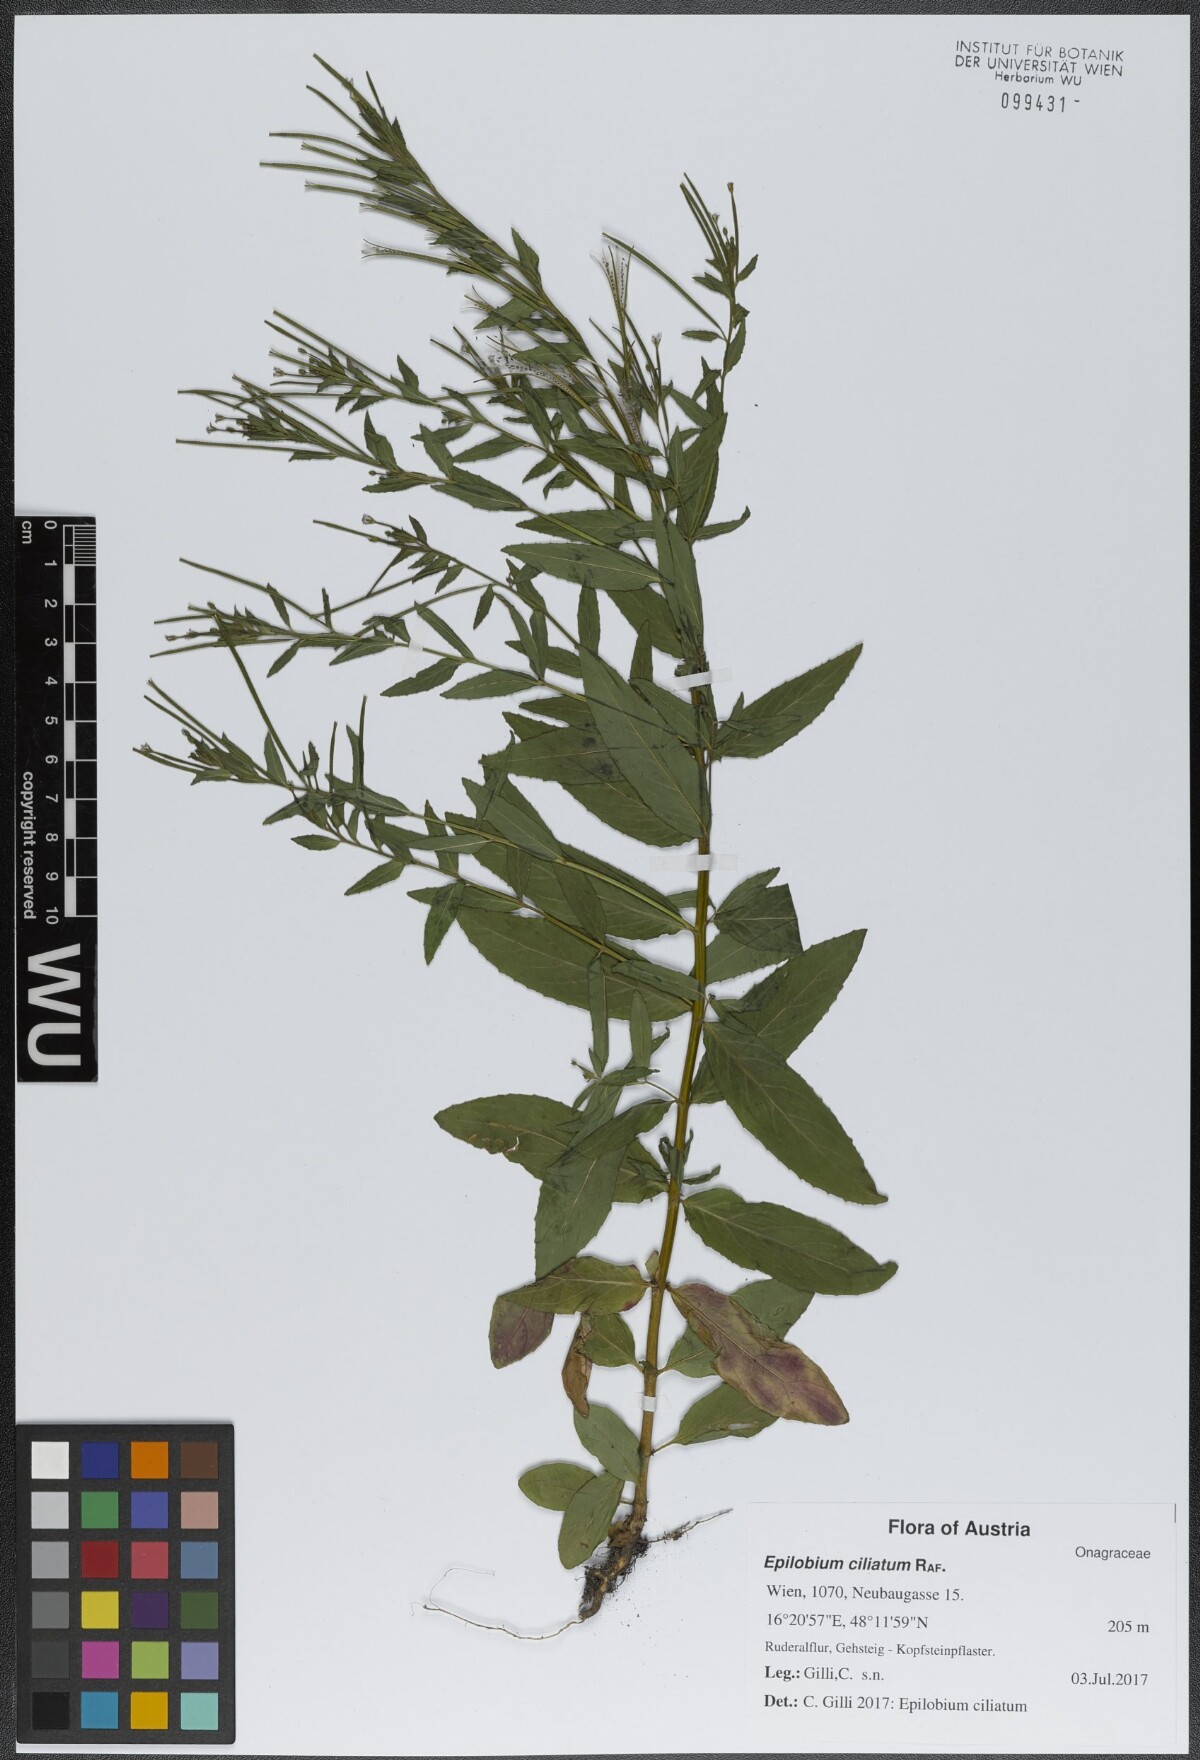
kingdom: Plantae
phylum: Tracheophyta
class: Magnoliopsida
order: Myrtales
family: Onagraceae
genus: Epilobium
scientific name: Epilobium ciliatum
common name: American willowherb
